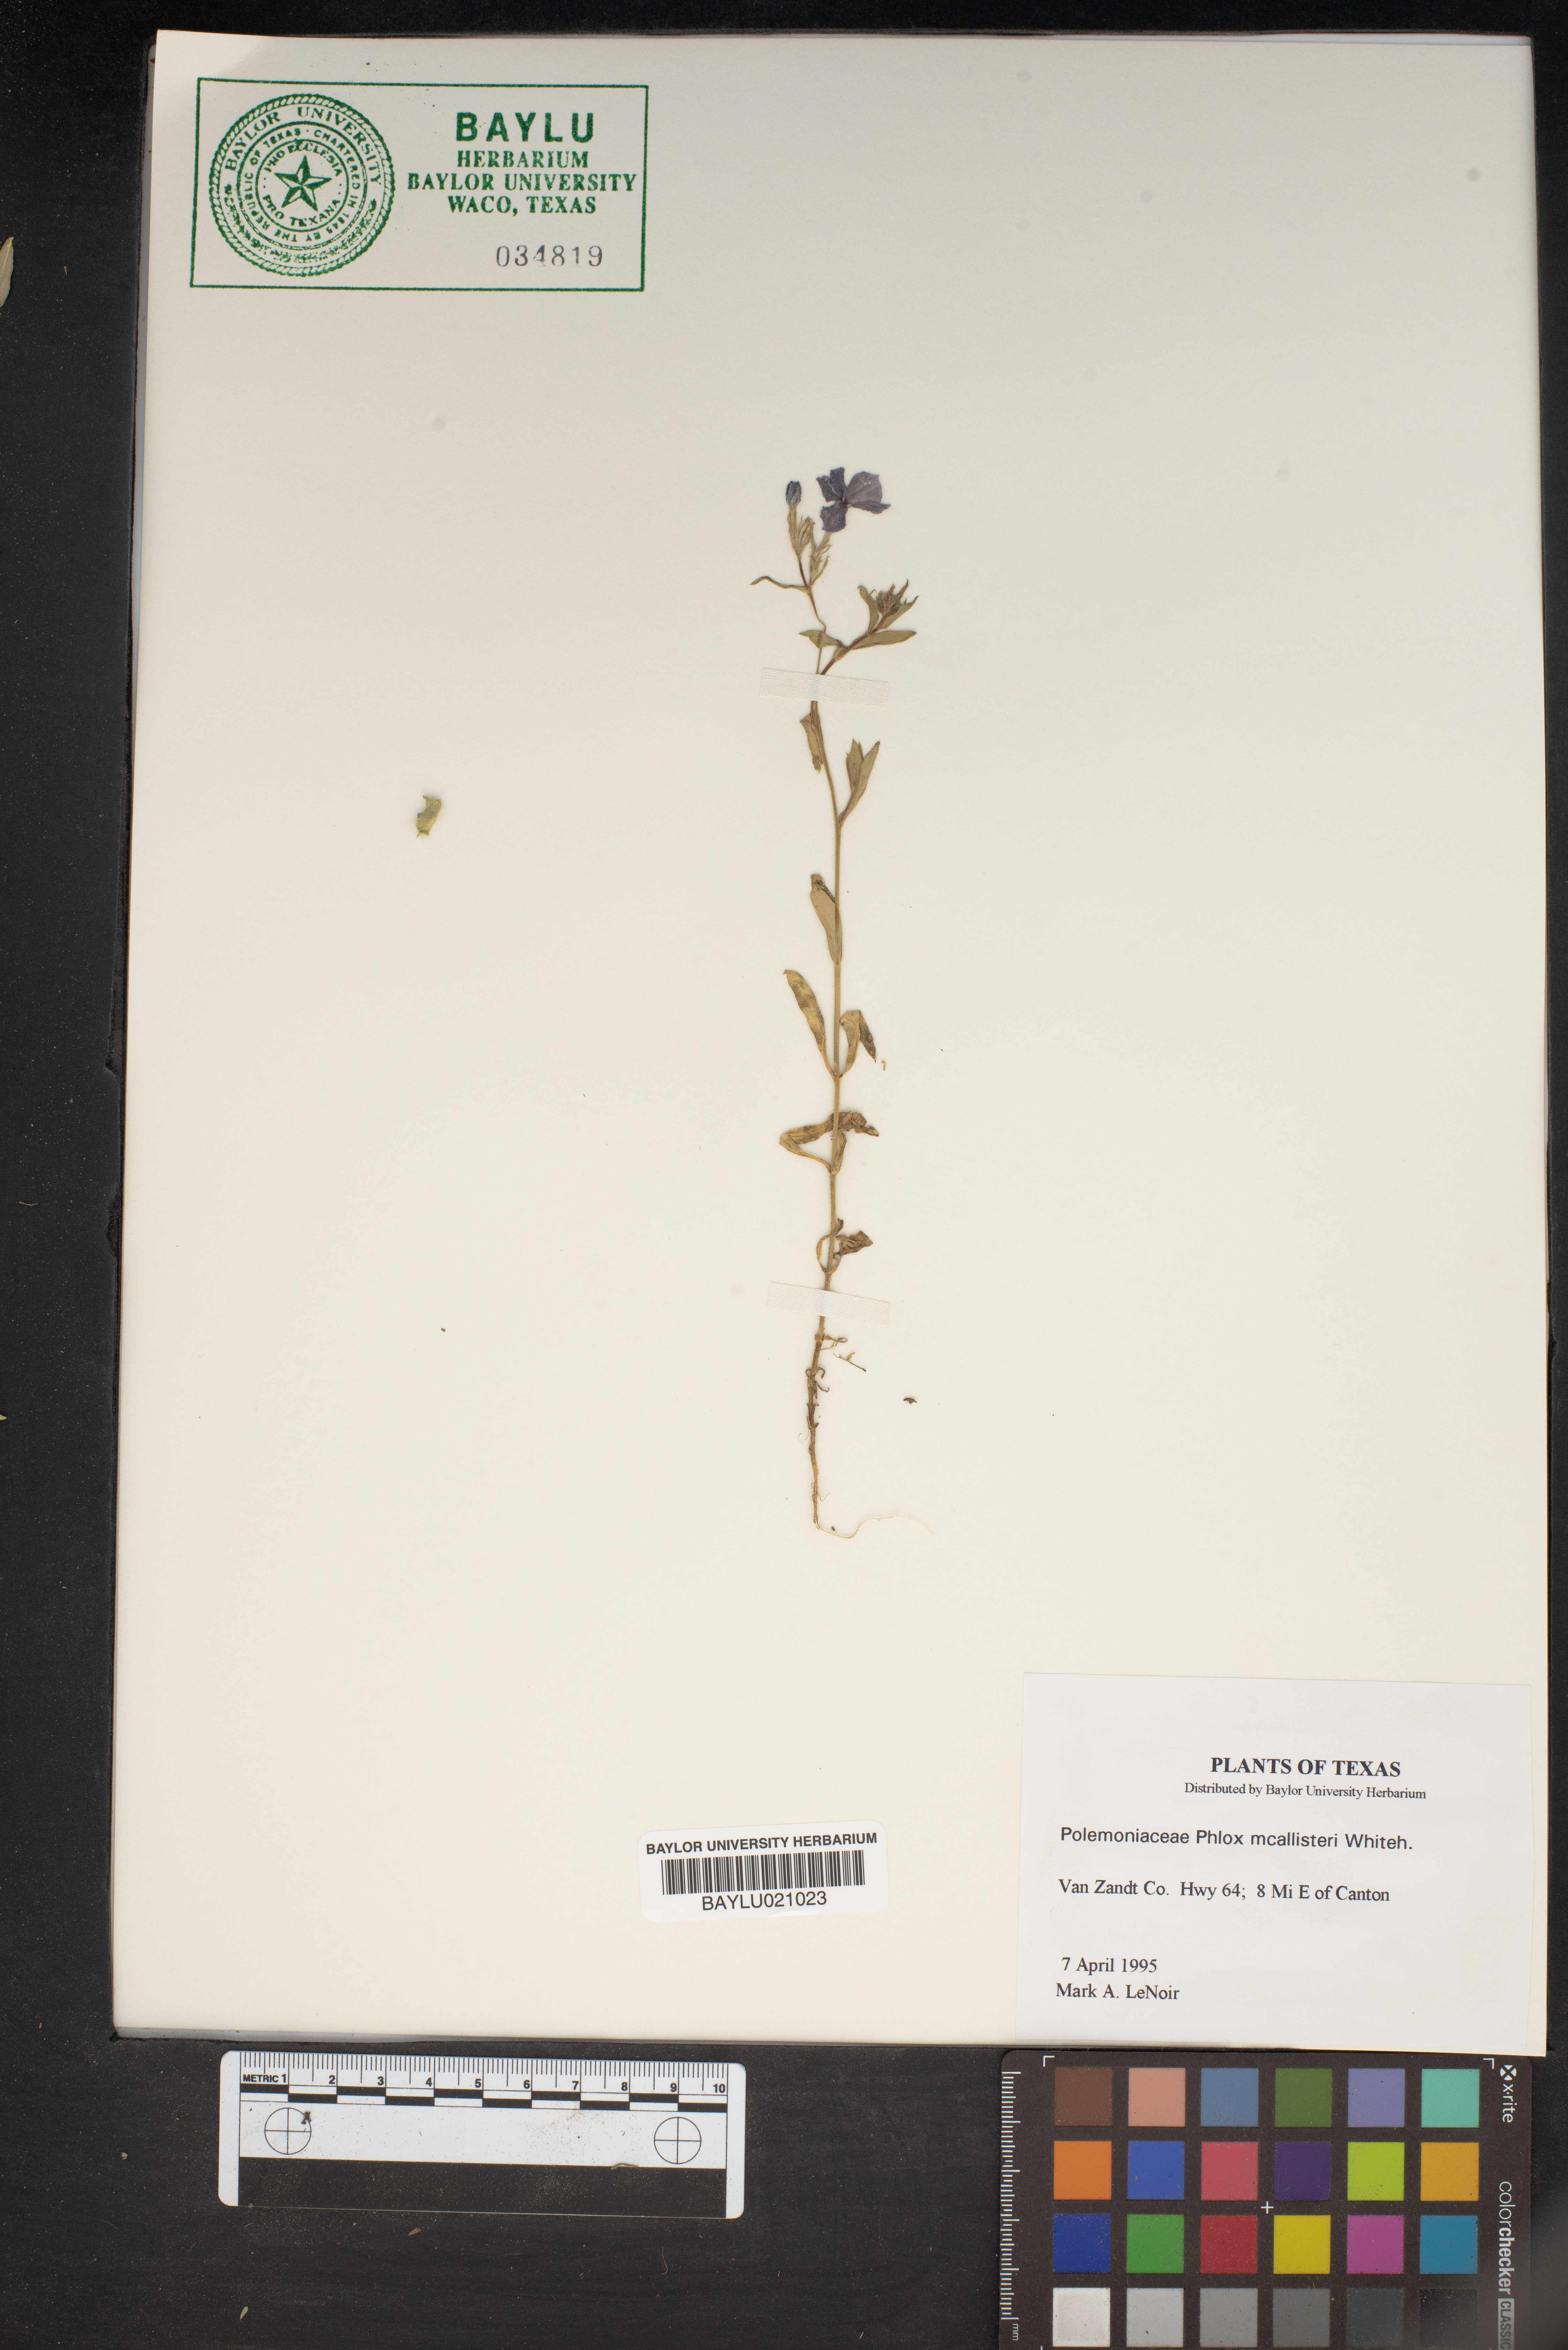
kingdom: Plantae
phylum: Tracheophyta
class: Magnoliopsida
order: Ericales
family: Polemoniaceae
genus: Phlox
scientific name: Phlox drummondii
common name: Drummond's phlox
